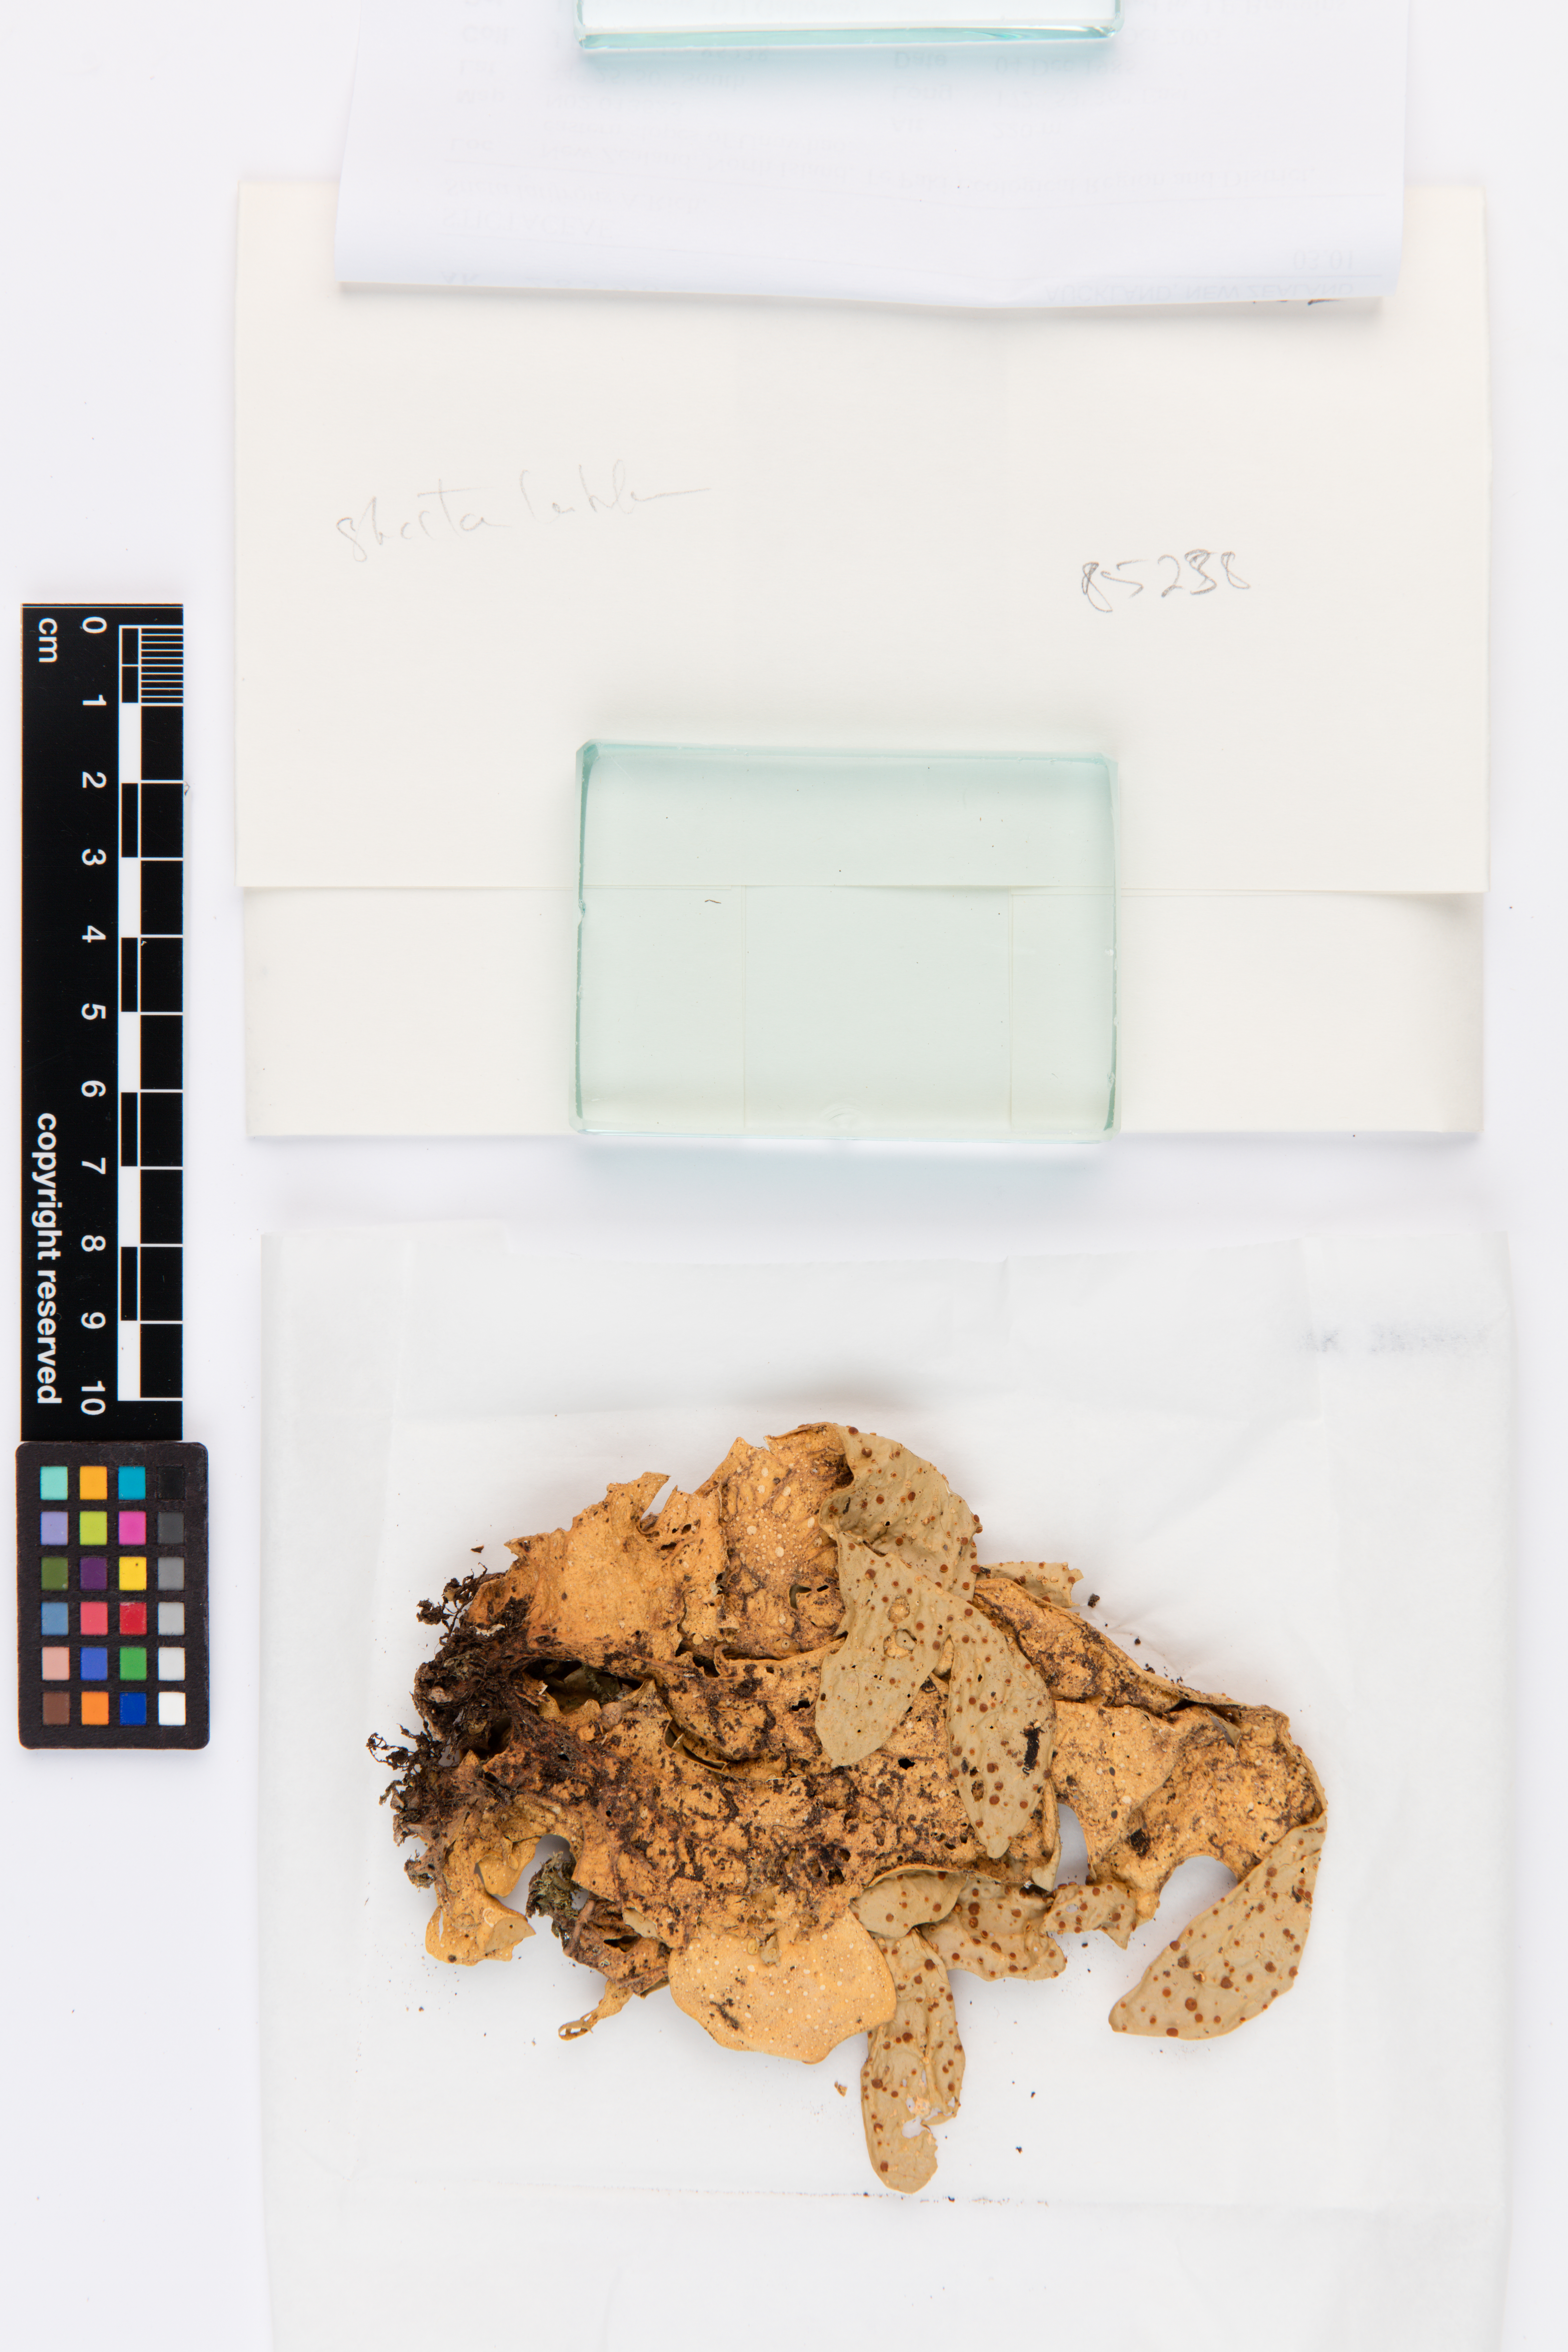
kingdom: Fungi
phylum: Ascomycota
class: Lecanoromycetes
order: Peltigerales
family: Lobariaceae
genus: Sticta
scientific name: Sticta latifrons
